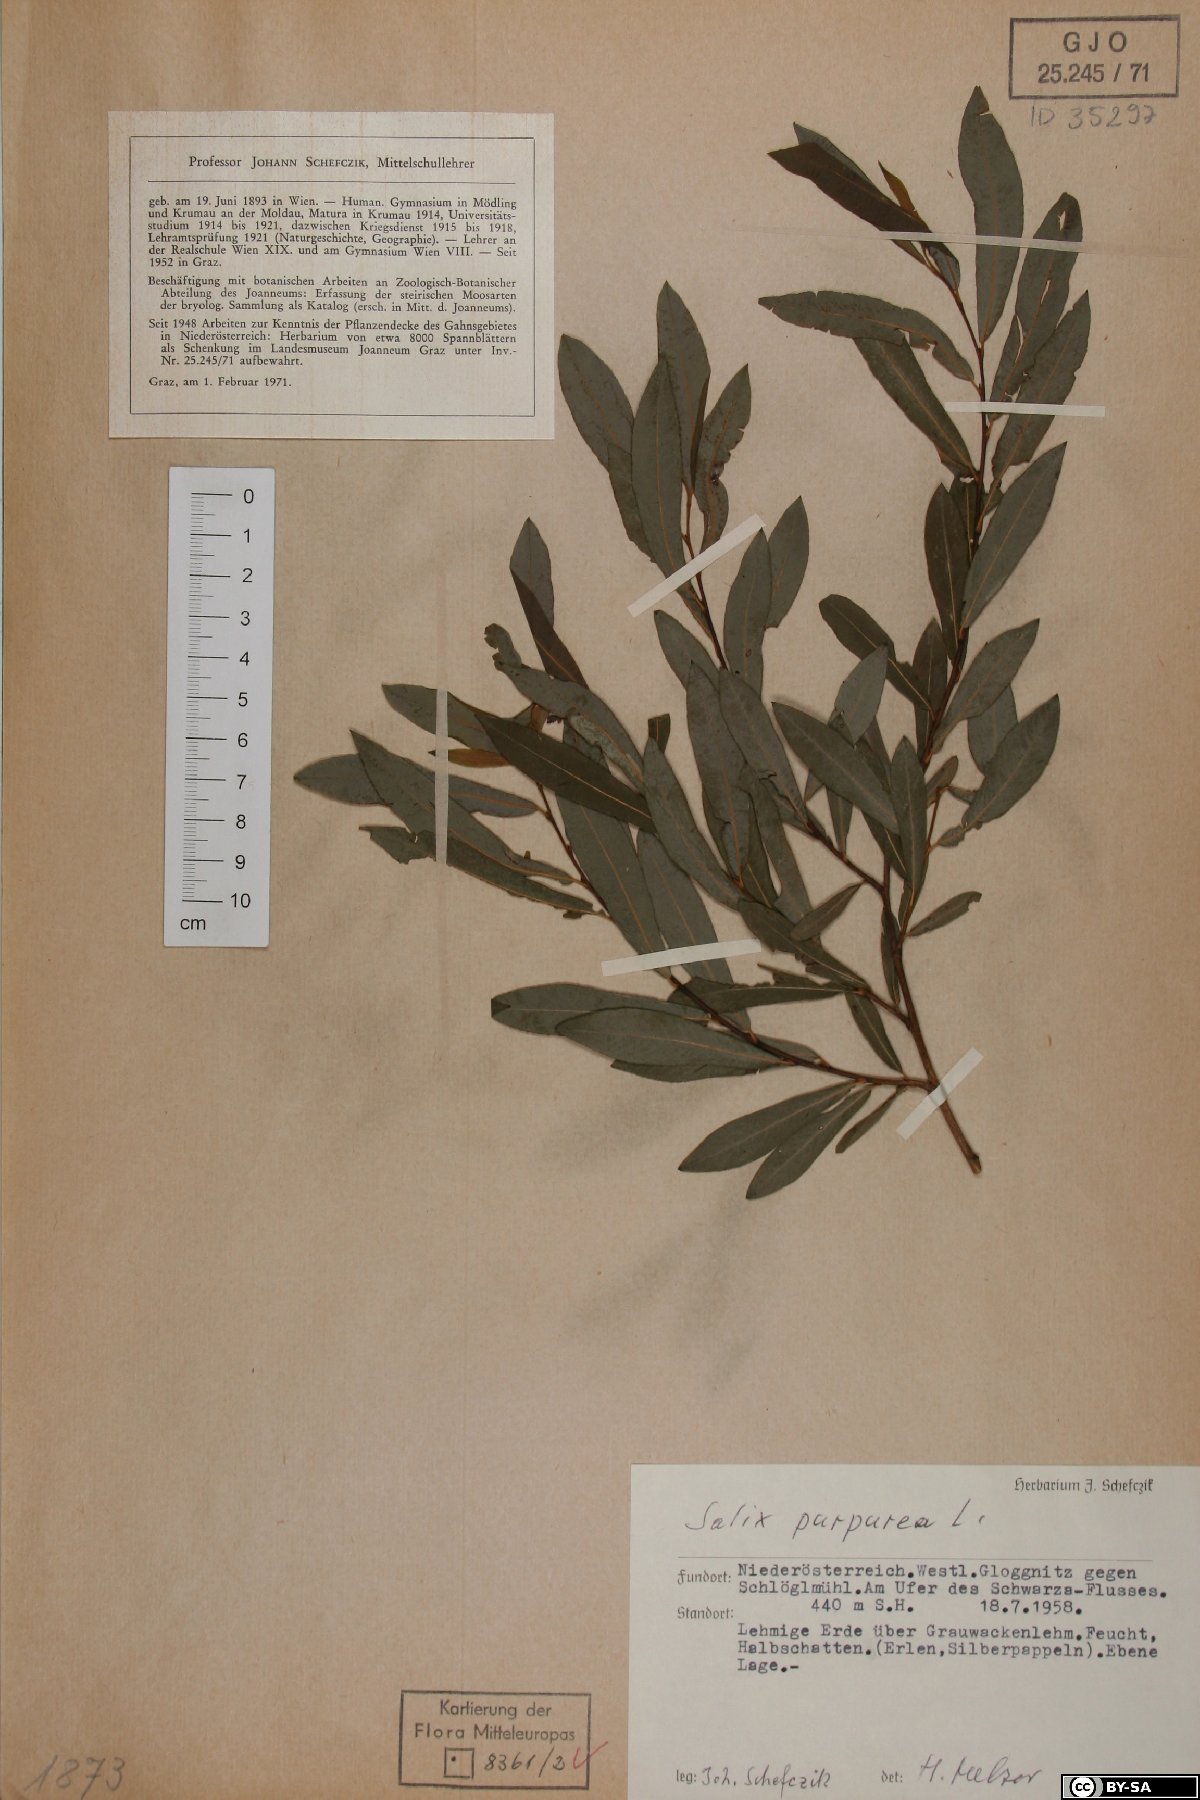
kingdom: Plantae
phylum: Tracheophyta
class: Magnoliopsida
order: Malpighiales
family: Salicaceae
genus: Salix
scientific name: Salix purpurea
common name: Purple willow
